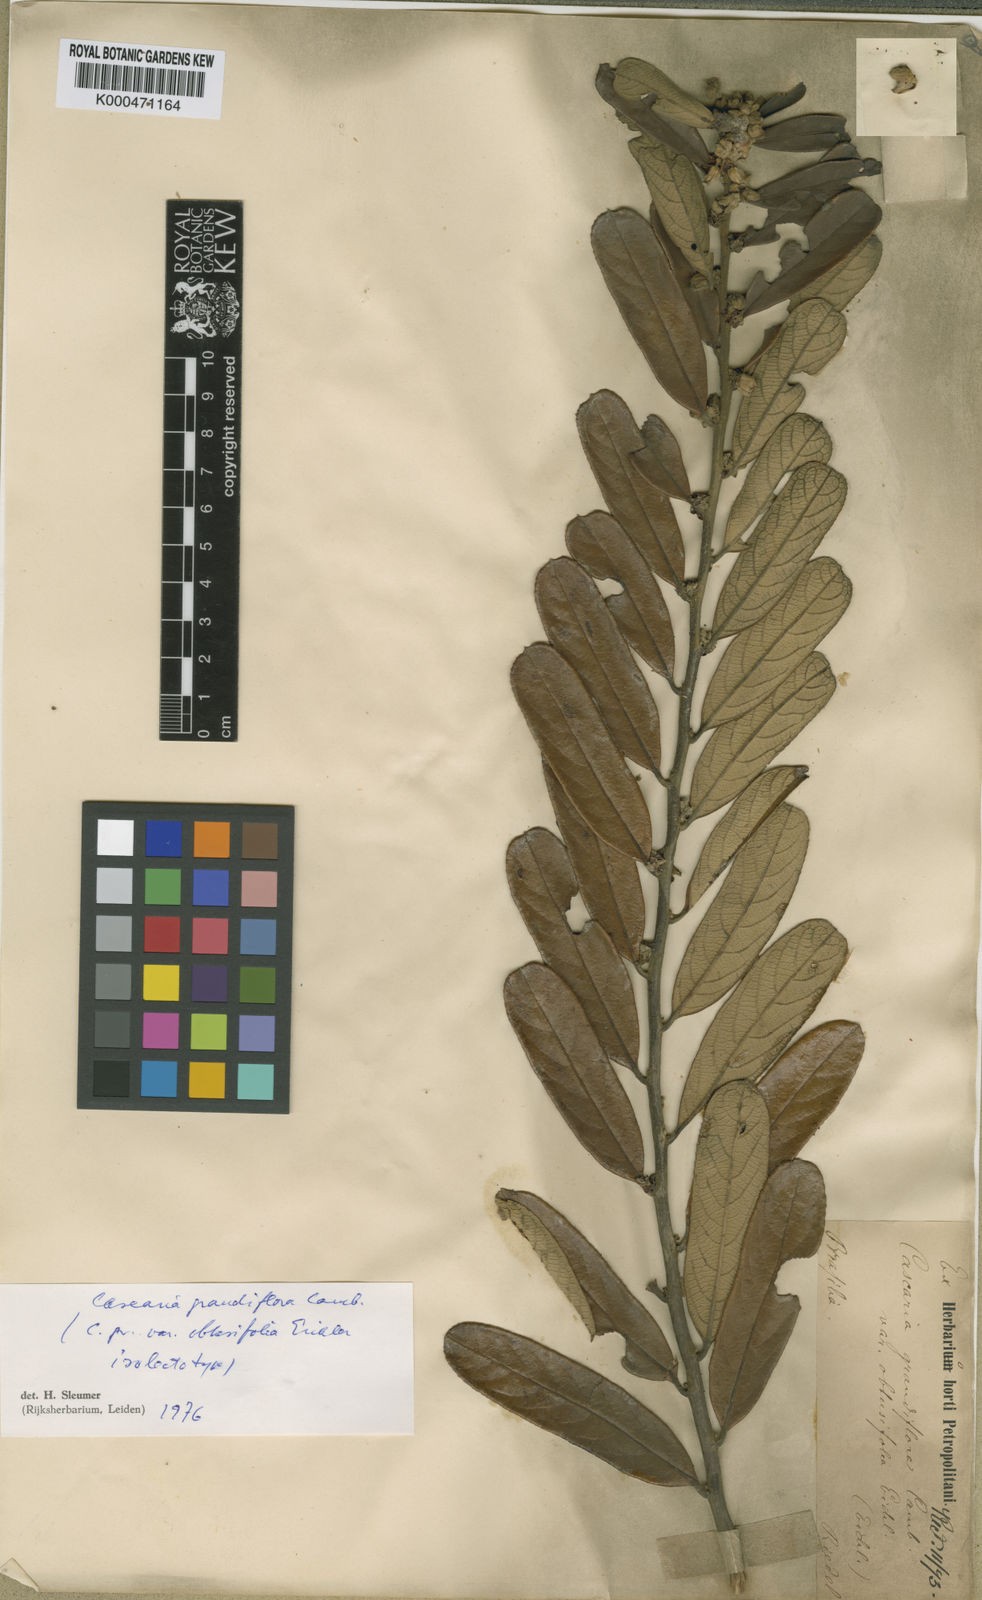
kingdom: Plantae
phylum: Tracheophyta
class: Magnoliopsida
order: Malpighiales
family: Salicaceae
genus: Casearia
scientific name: Casearia grandiflora
